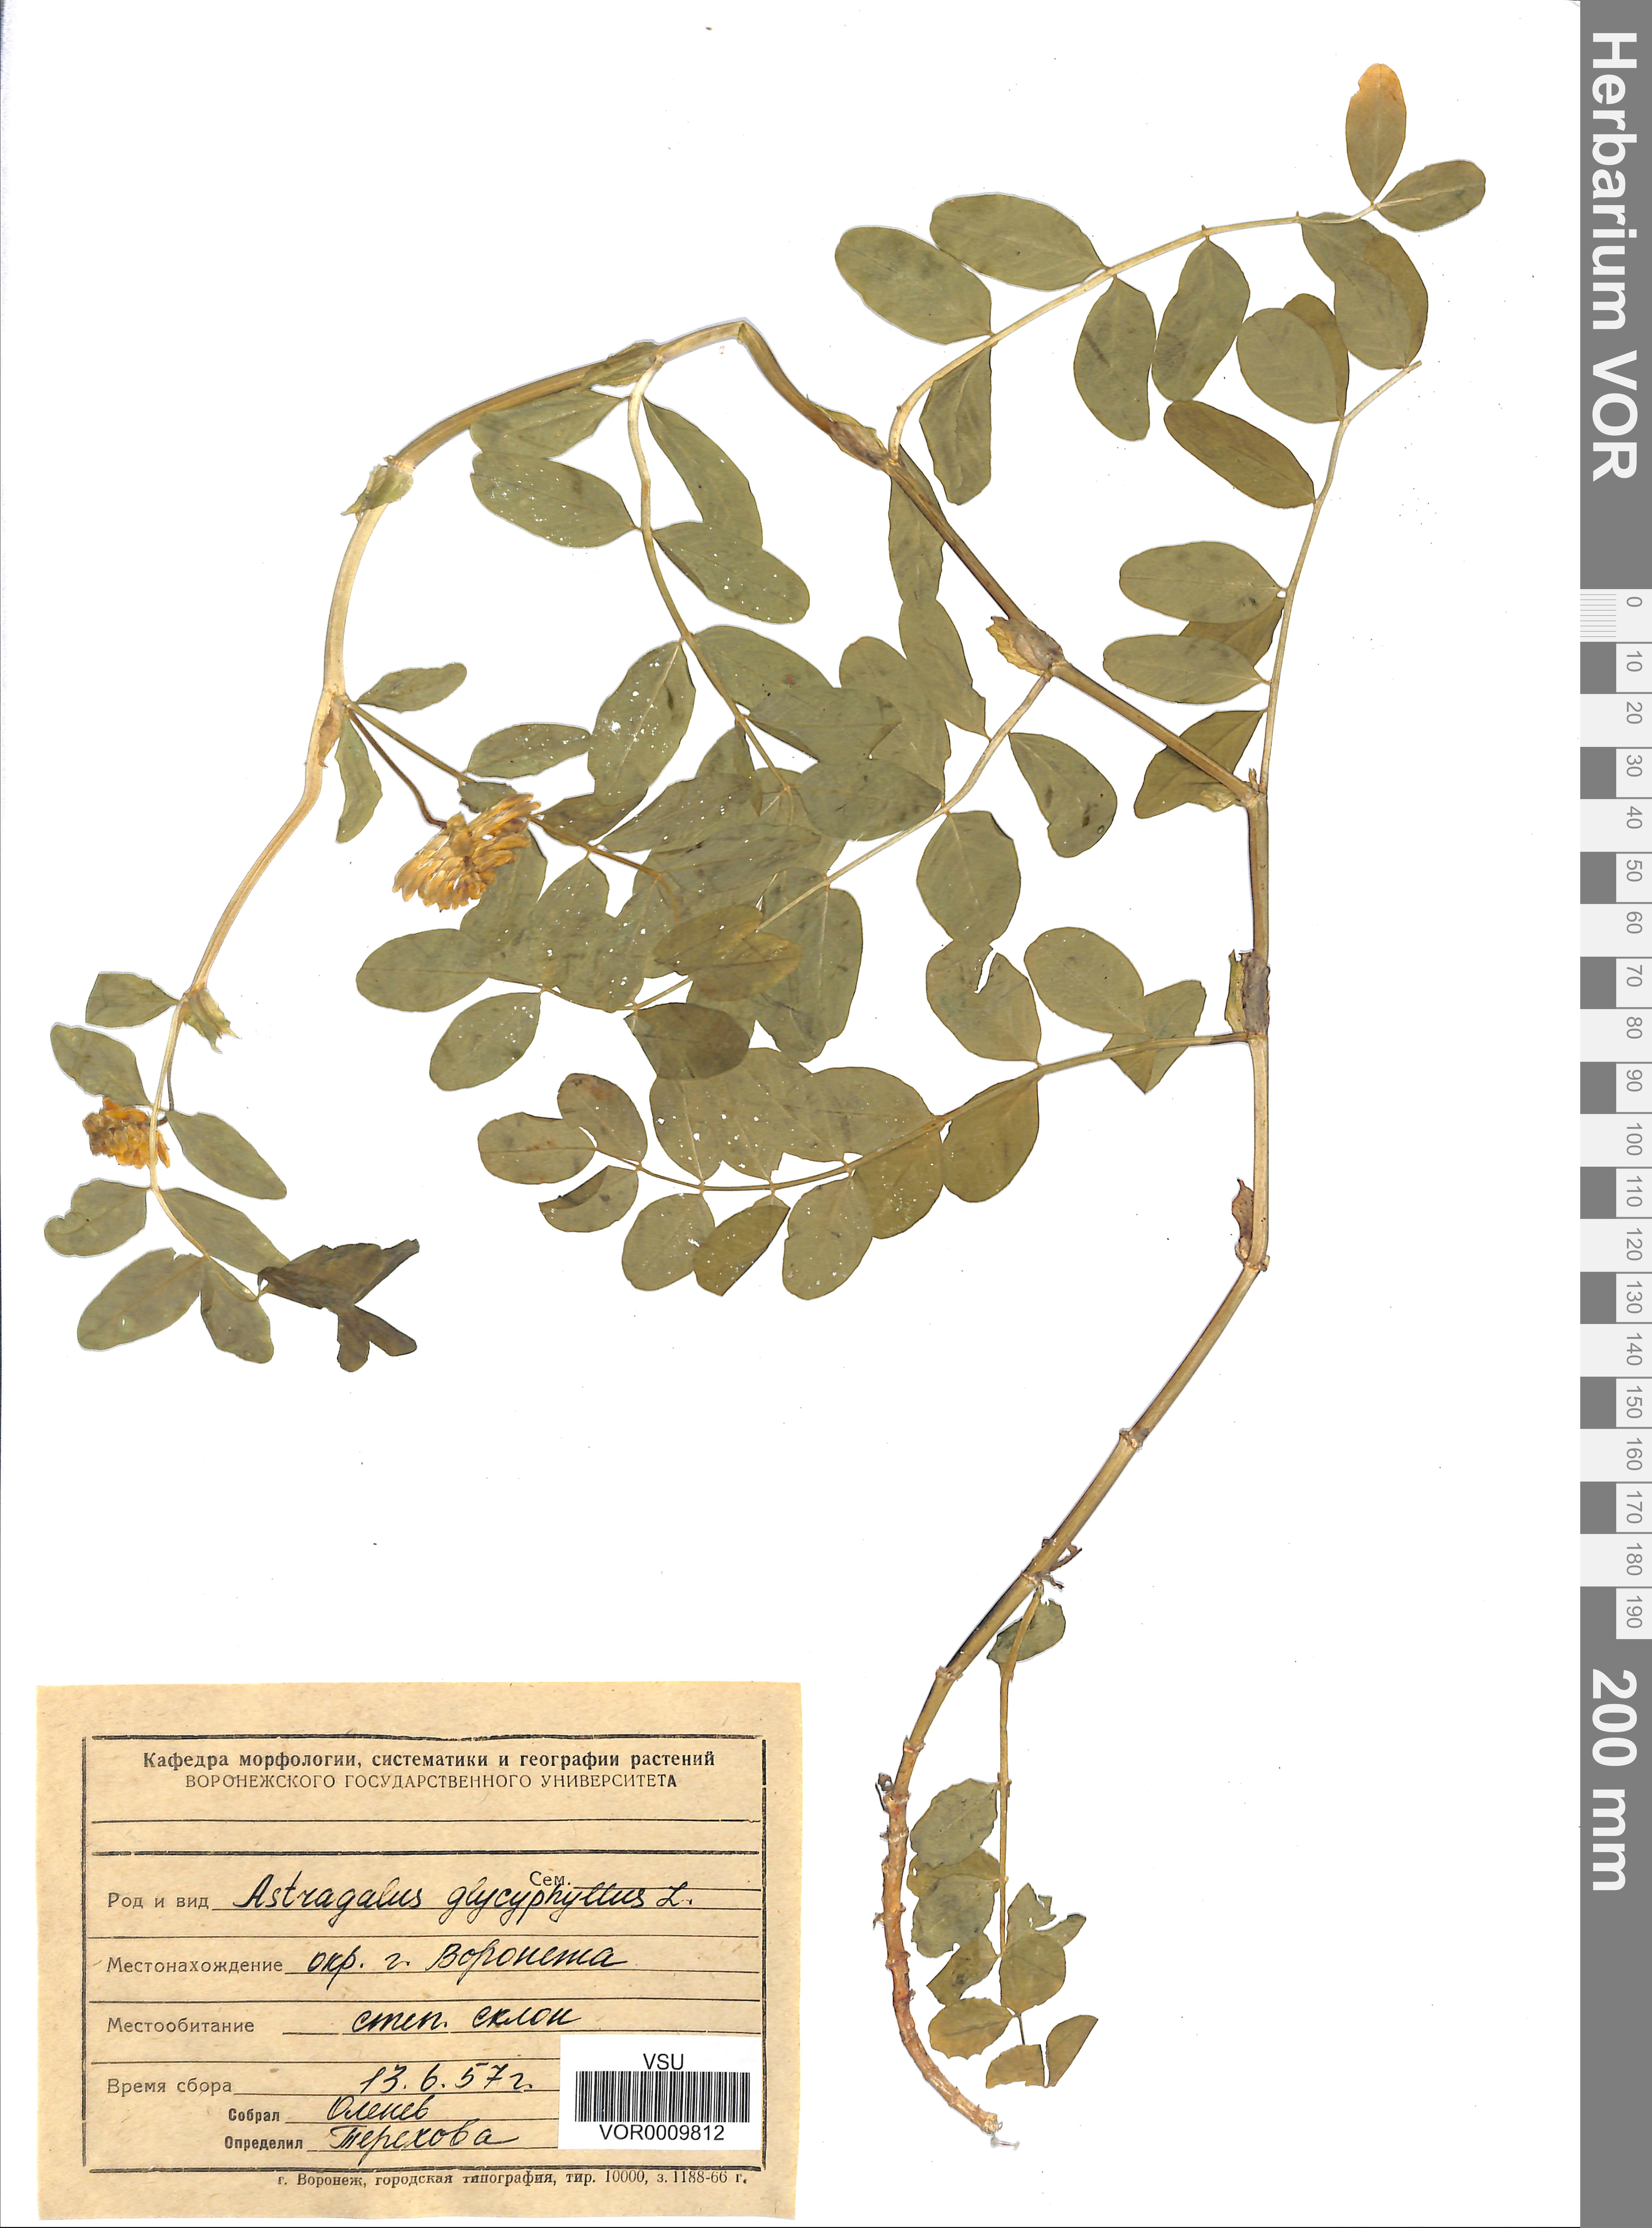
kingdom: Plantae
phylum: Tracheophyta
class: Magnoliopsida
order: Fabales
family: Fabaceae
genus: Astragalus
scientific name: Astragalus glycyphyllos
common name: Wild liquorice
